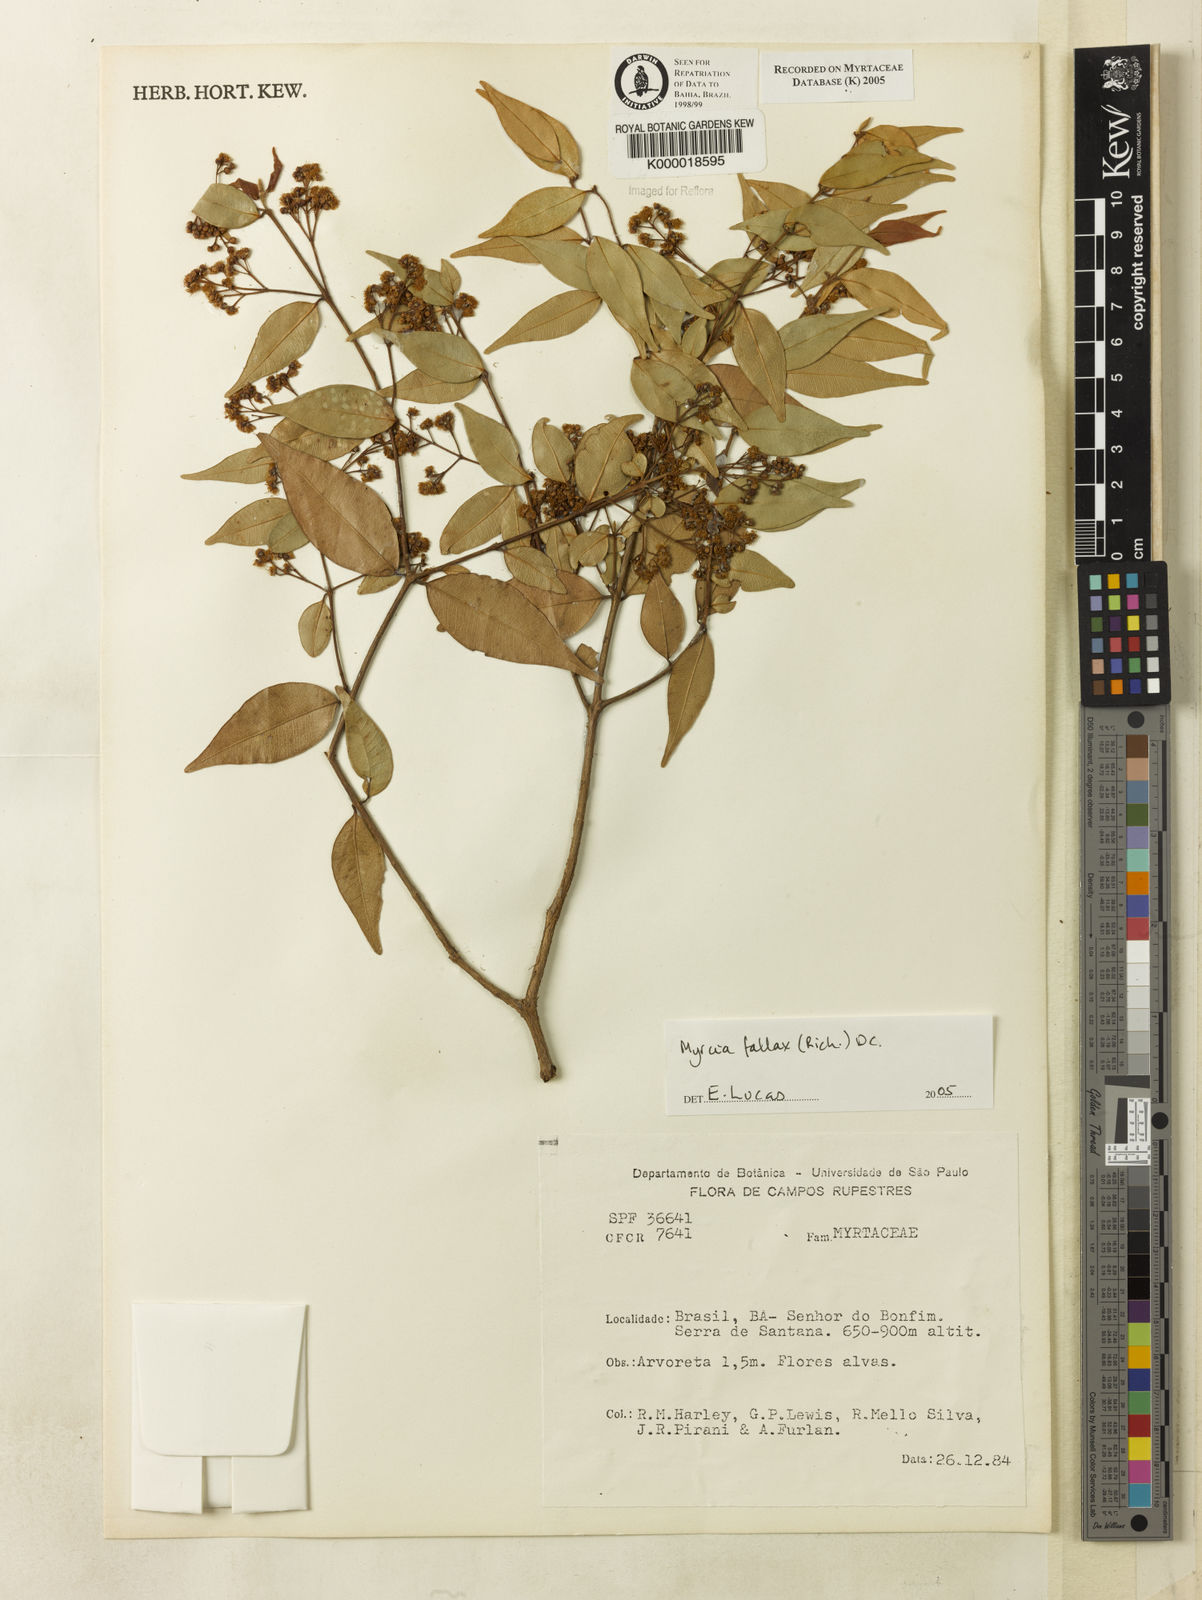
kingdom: Plantae
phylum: Tracheophyta
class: Magnoliopsida
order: Myrtales
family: Myrtaceae
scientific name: Myrtaceae
